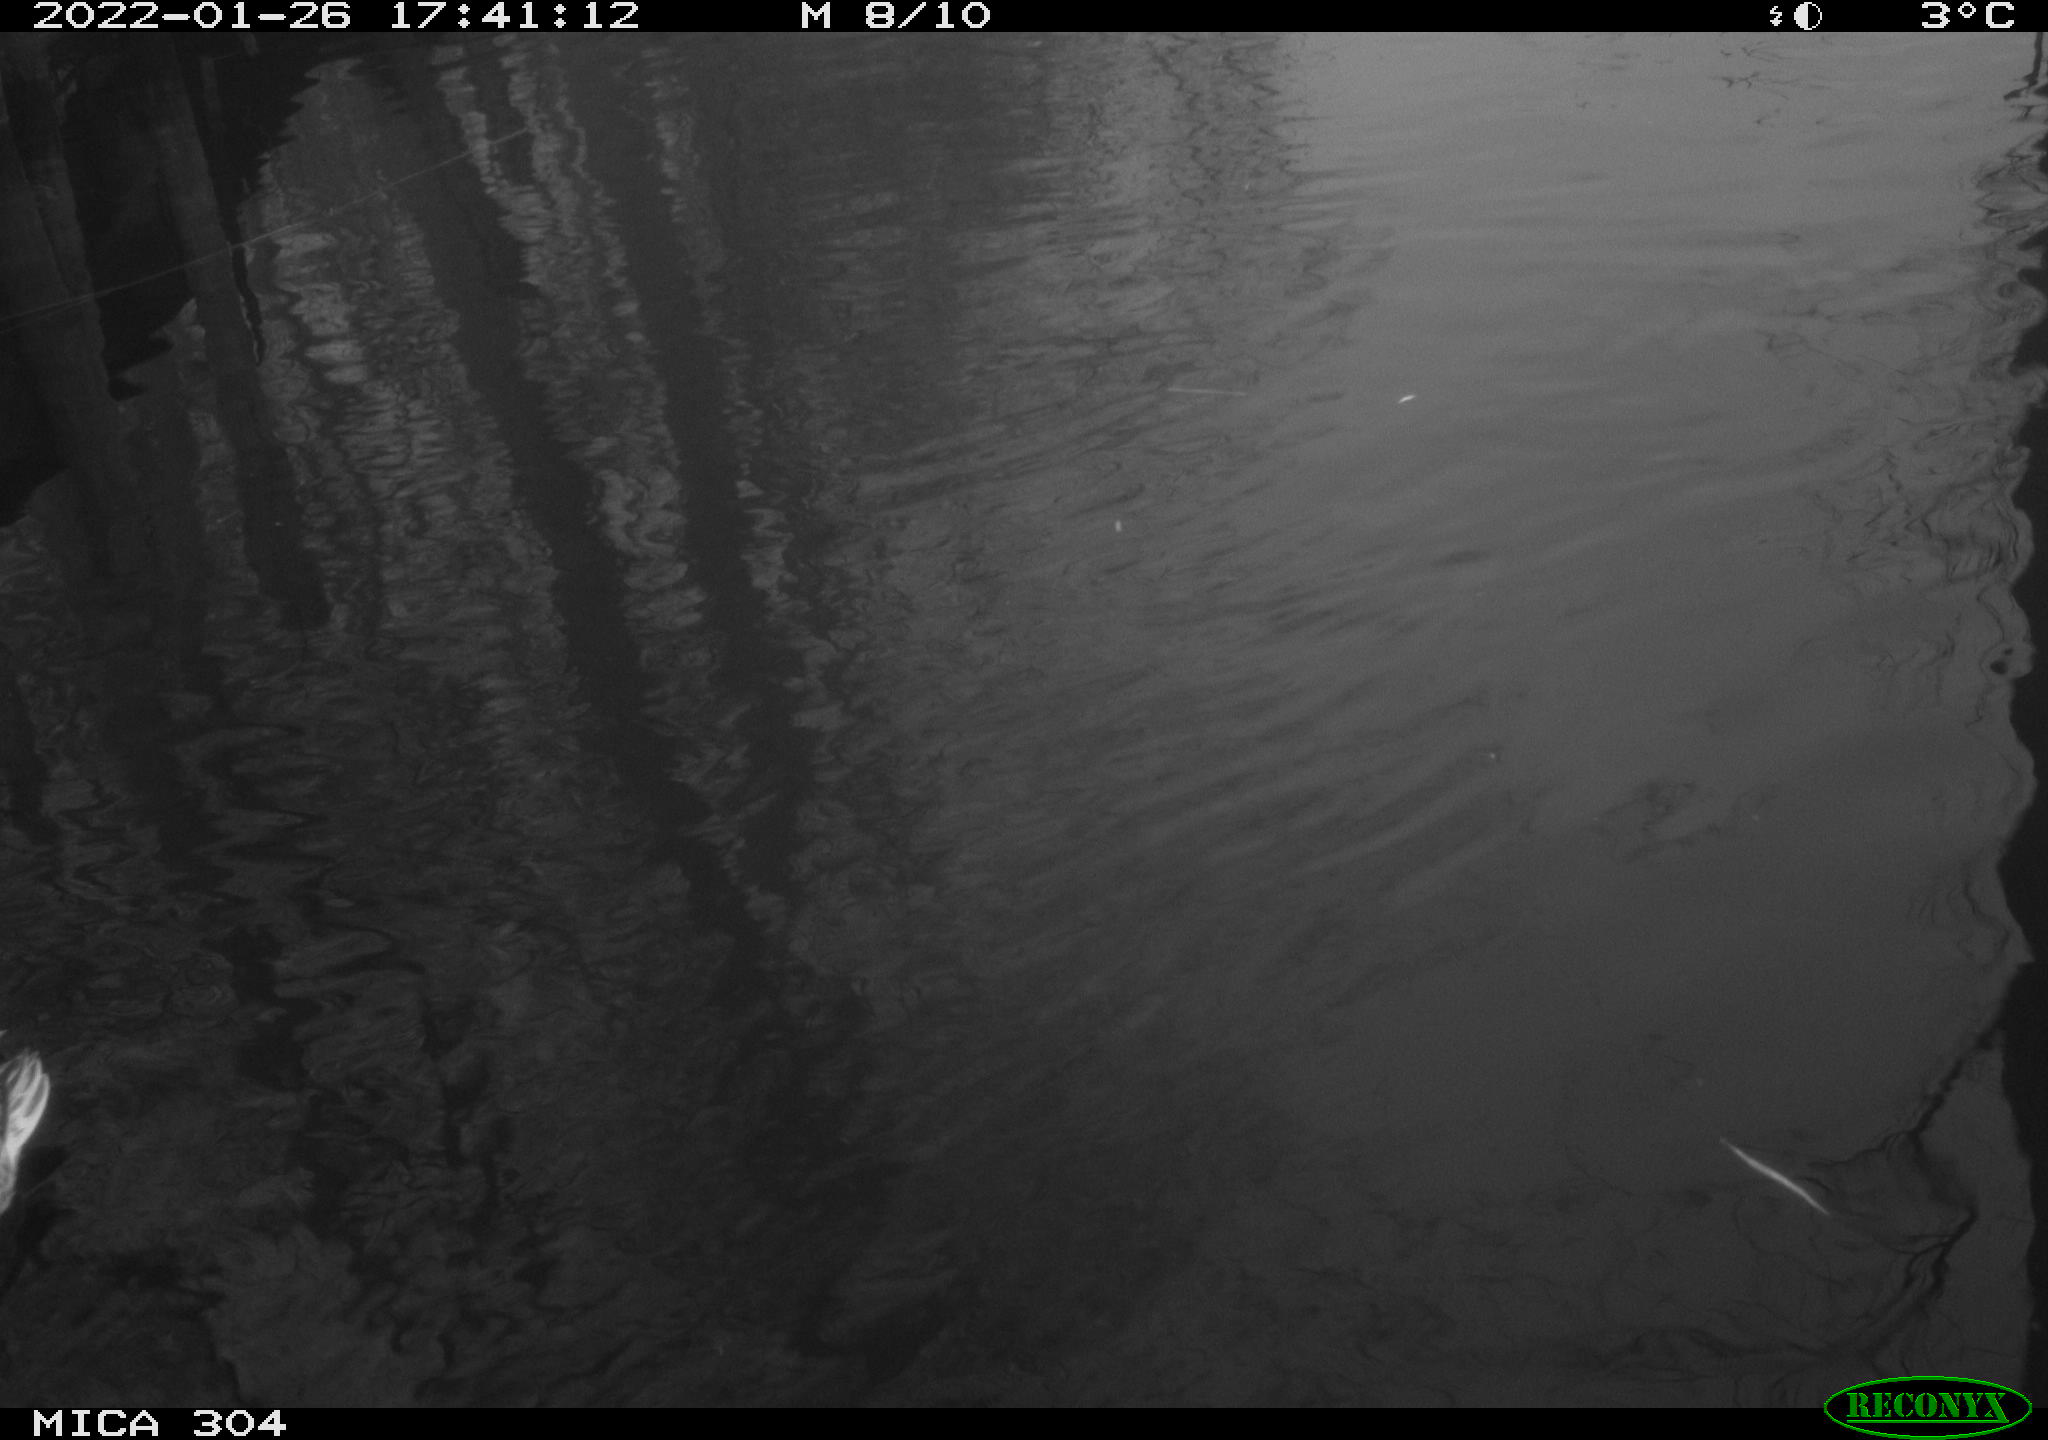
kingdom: Animalia
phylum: Chordata
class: Aves
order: Anseriformes
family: Anatidae
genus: Anas
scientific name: Anas
